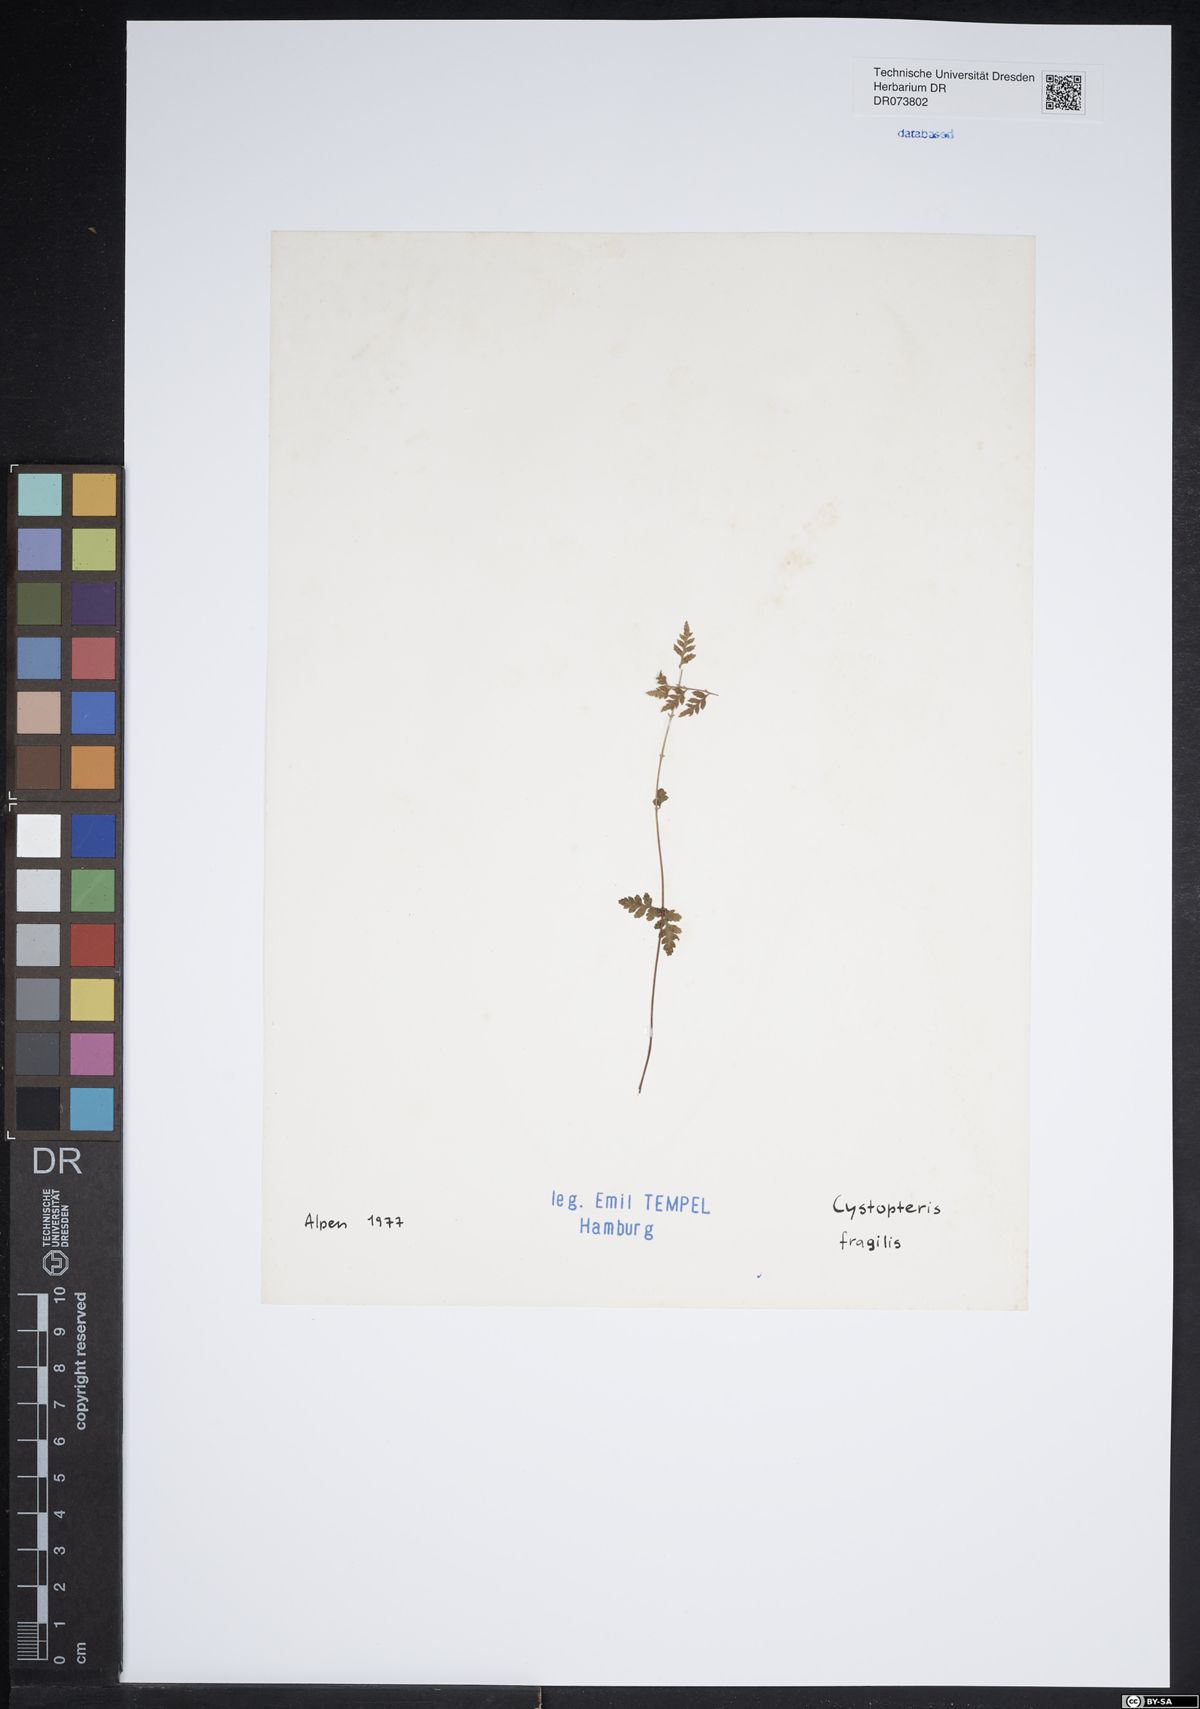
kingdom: Plantae
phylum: Tracheophyta
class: Polypodiopsida
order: Polypodiales
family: Cystopteridaceae
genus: Cystopteris
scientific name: Cystopteris fragilis
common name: Brittle bladder fern
